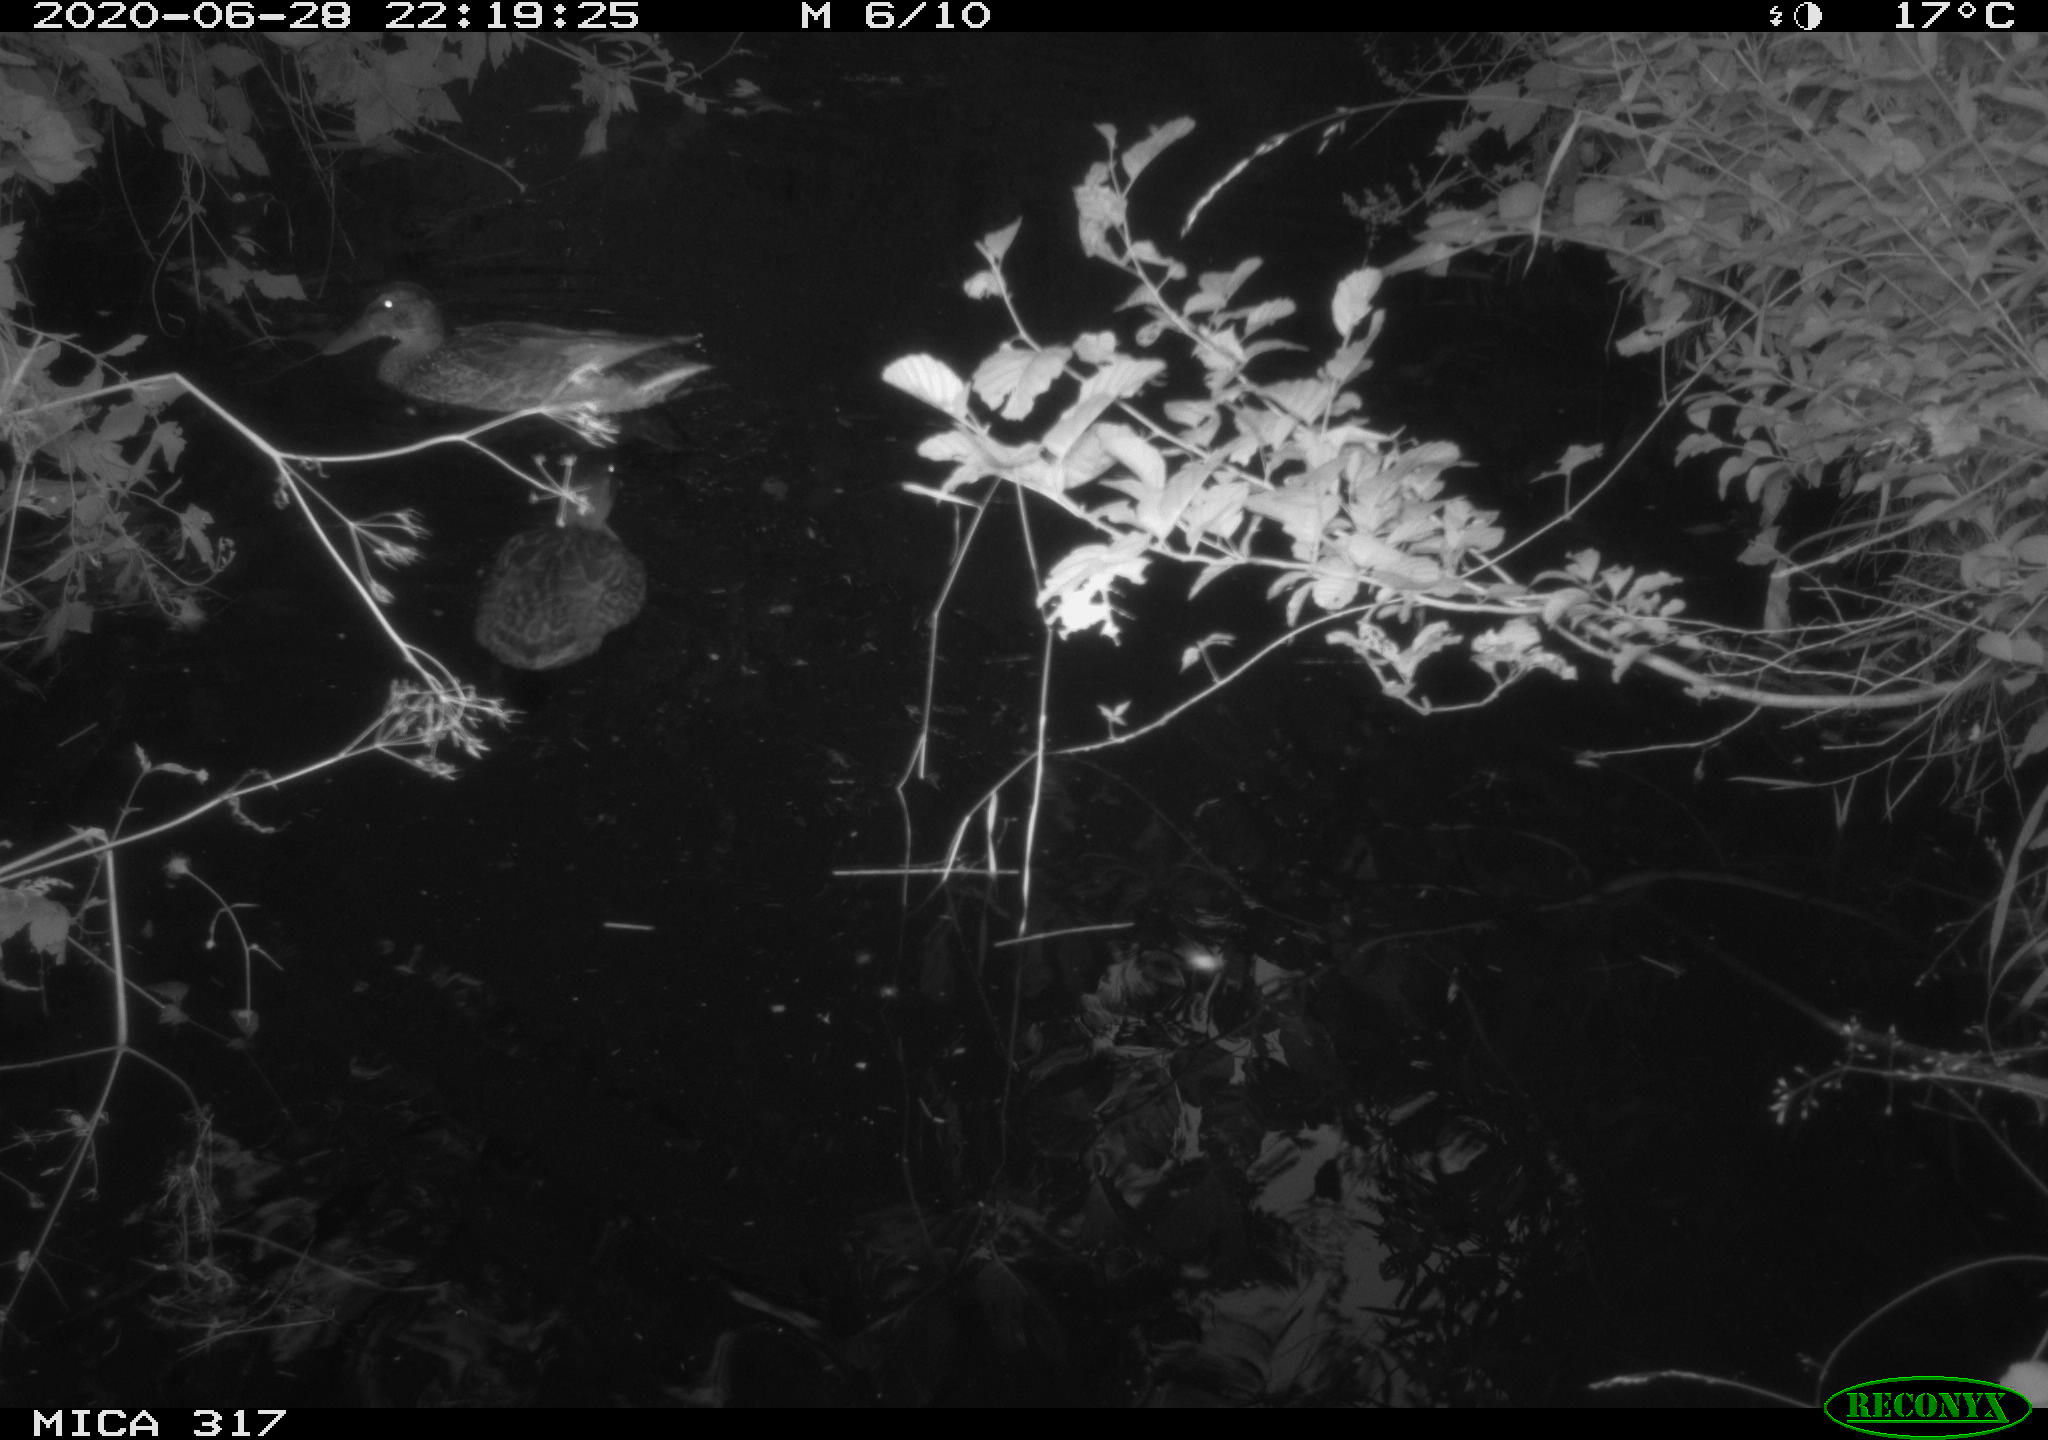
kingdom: Animalia
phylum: Chordata
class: Aves
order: Anseriformes
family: Anatidae
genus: Anas
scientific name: Anas platyrhynchos
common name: Mallard
